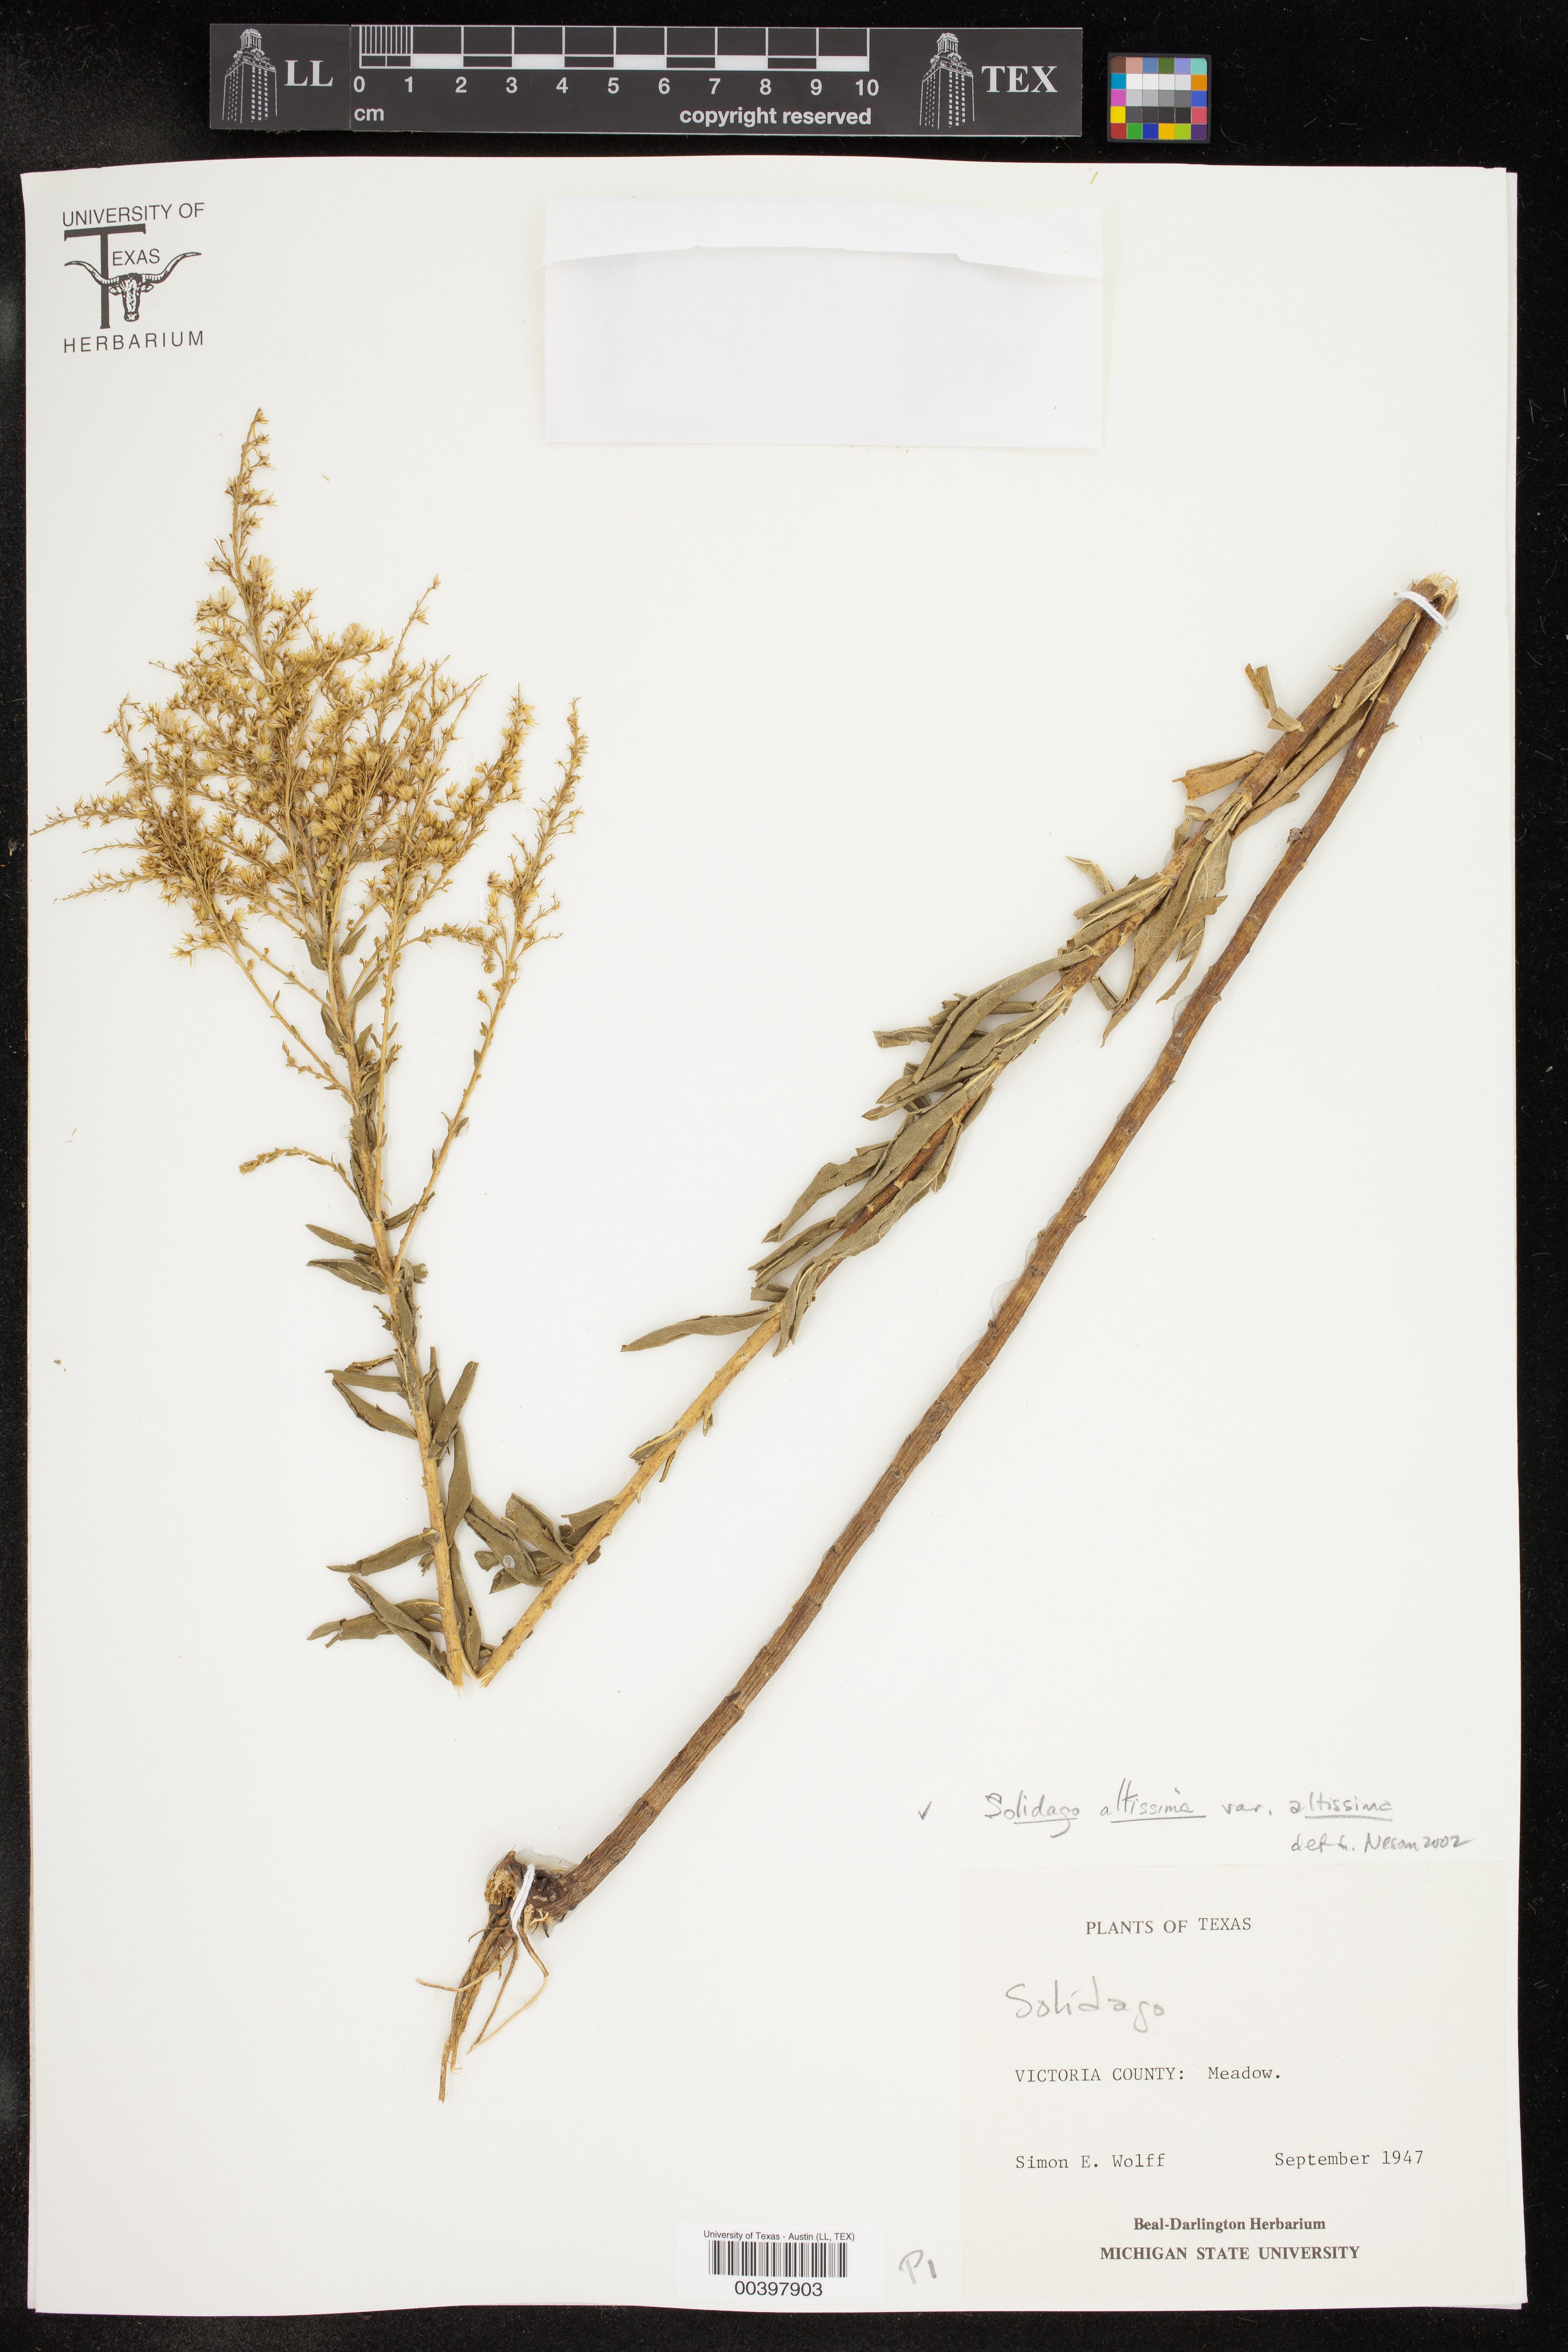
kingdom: Plantae
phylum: Tracheophyta
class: Magnoliopsida
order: Asterales
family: Asteraceae
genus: Solidago
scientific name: Solidago altissima
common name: Late goldenrod
